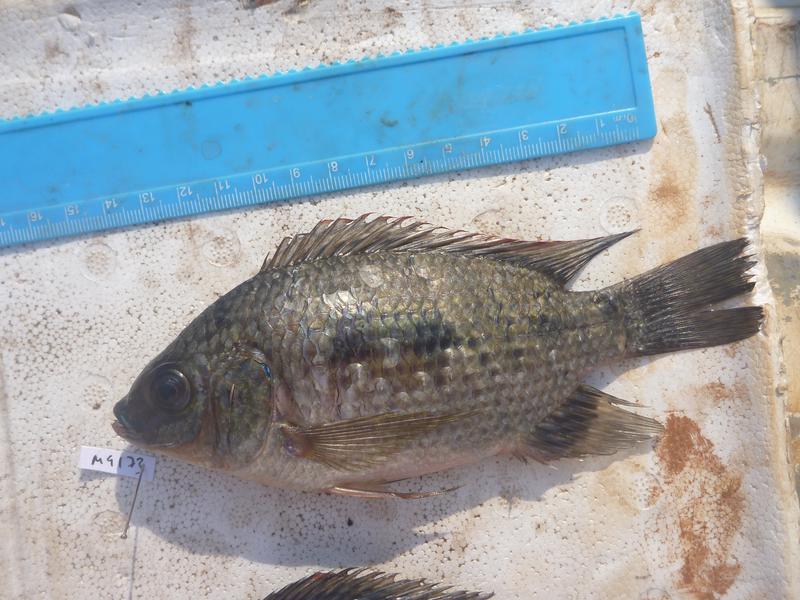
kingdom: Animalia
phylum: Chordata
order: Perciformes
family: Cichlidae
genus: Oreochromis
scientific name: Oreochromis upembae
